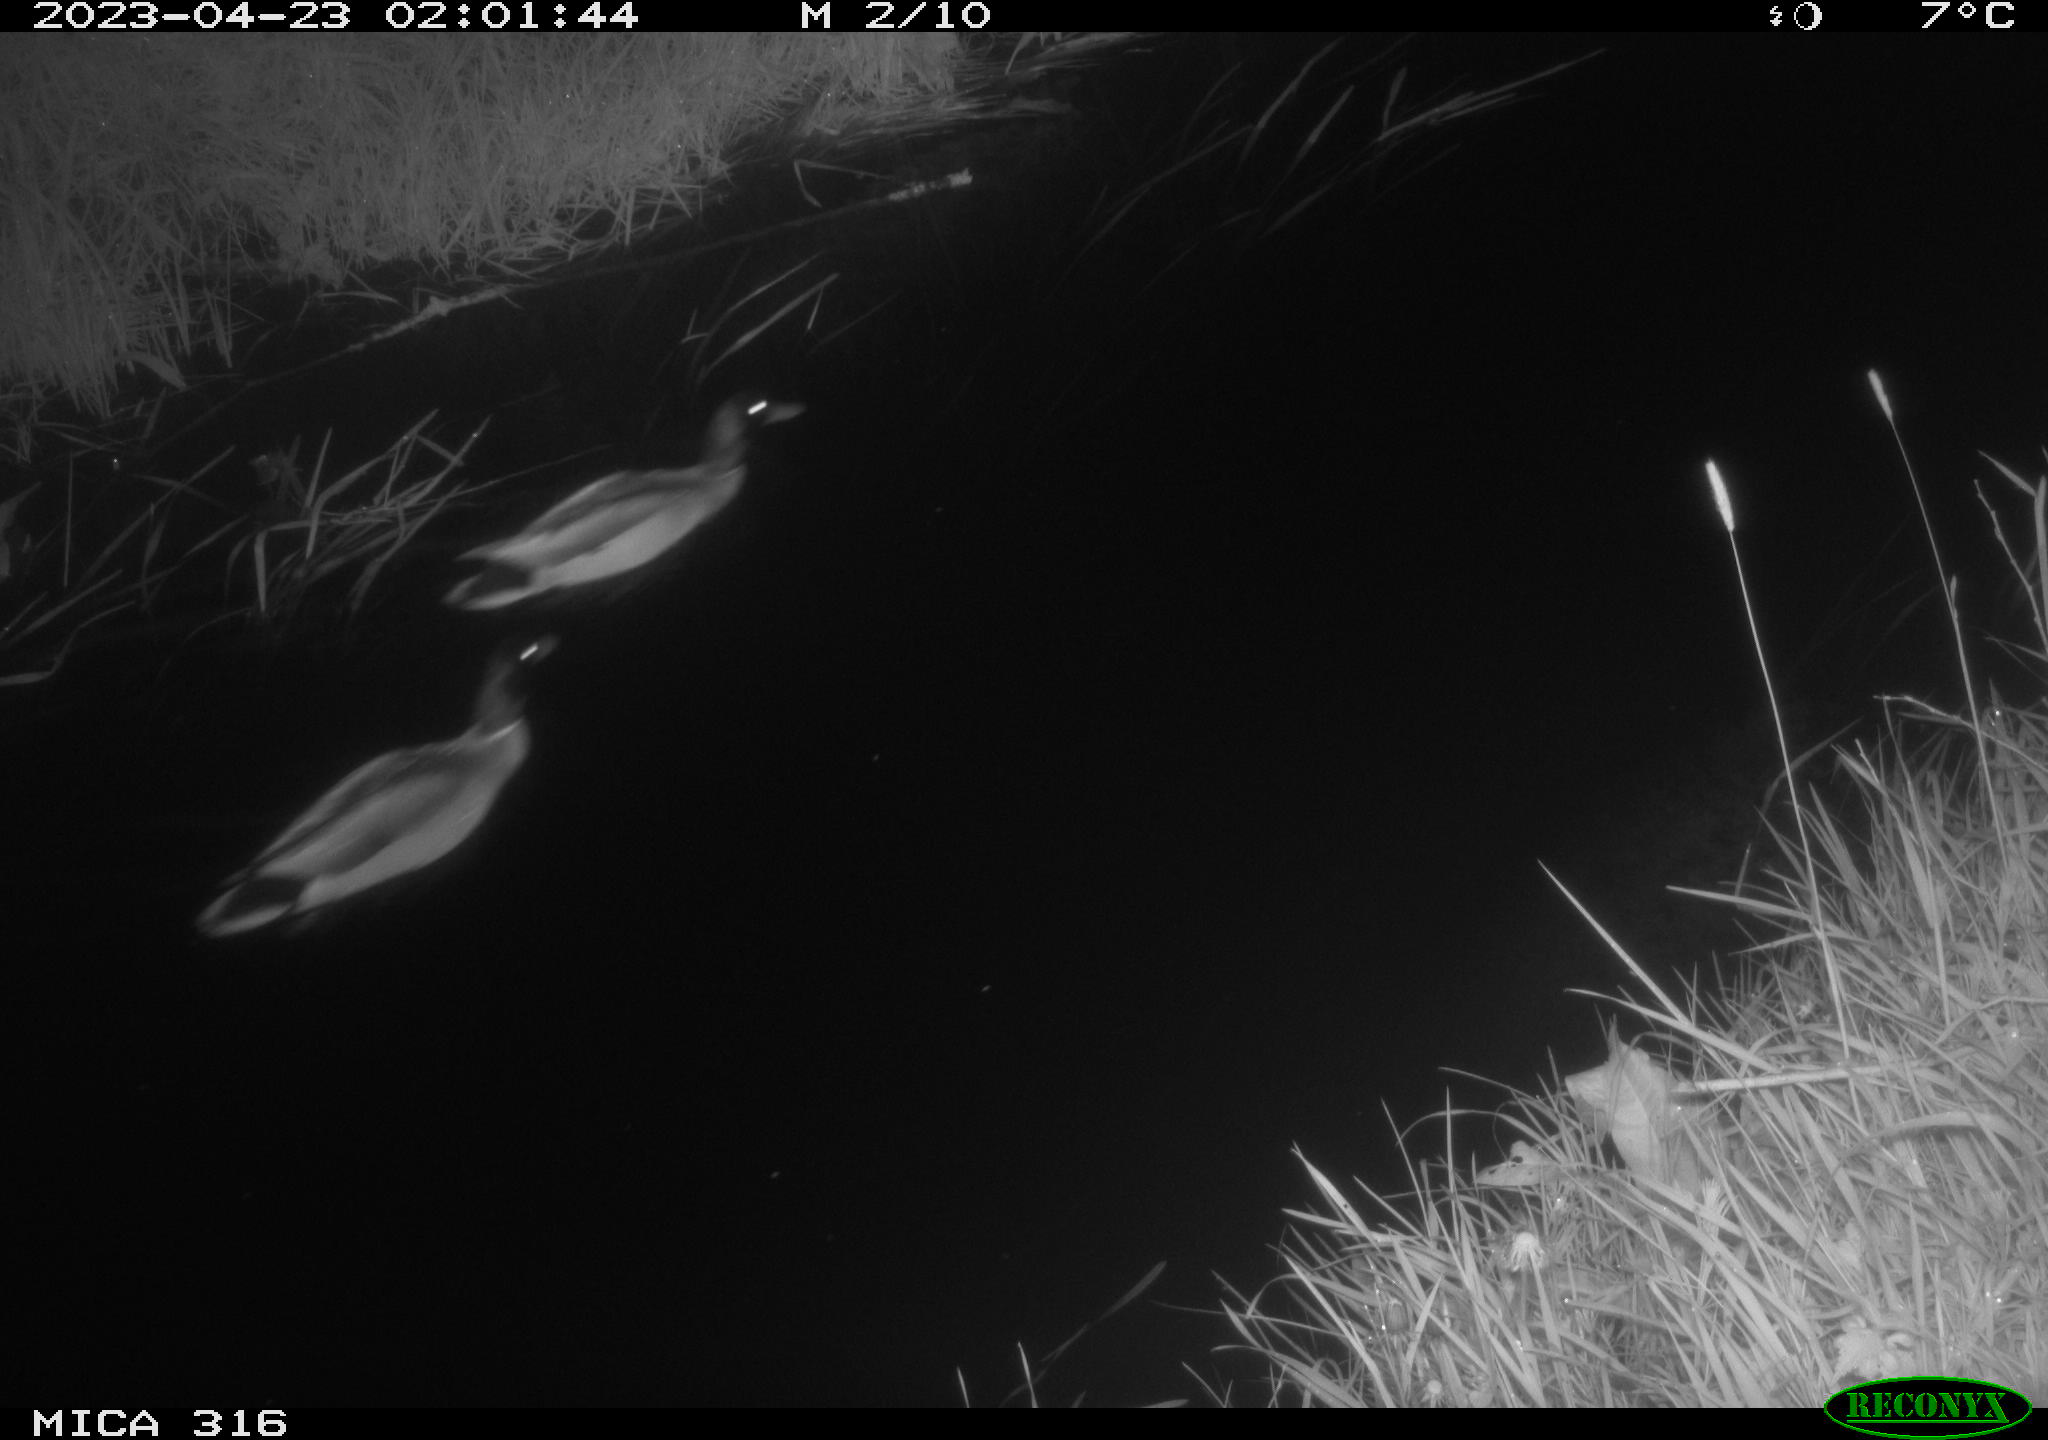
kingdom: Animalia
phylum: Chordata
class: Aves
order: Anseriformes
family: Anatidae
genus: Anas
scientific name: Anas
